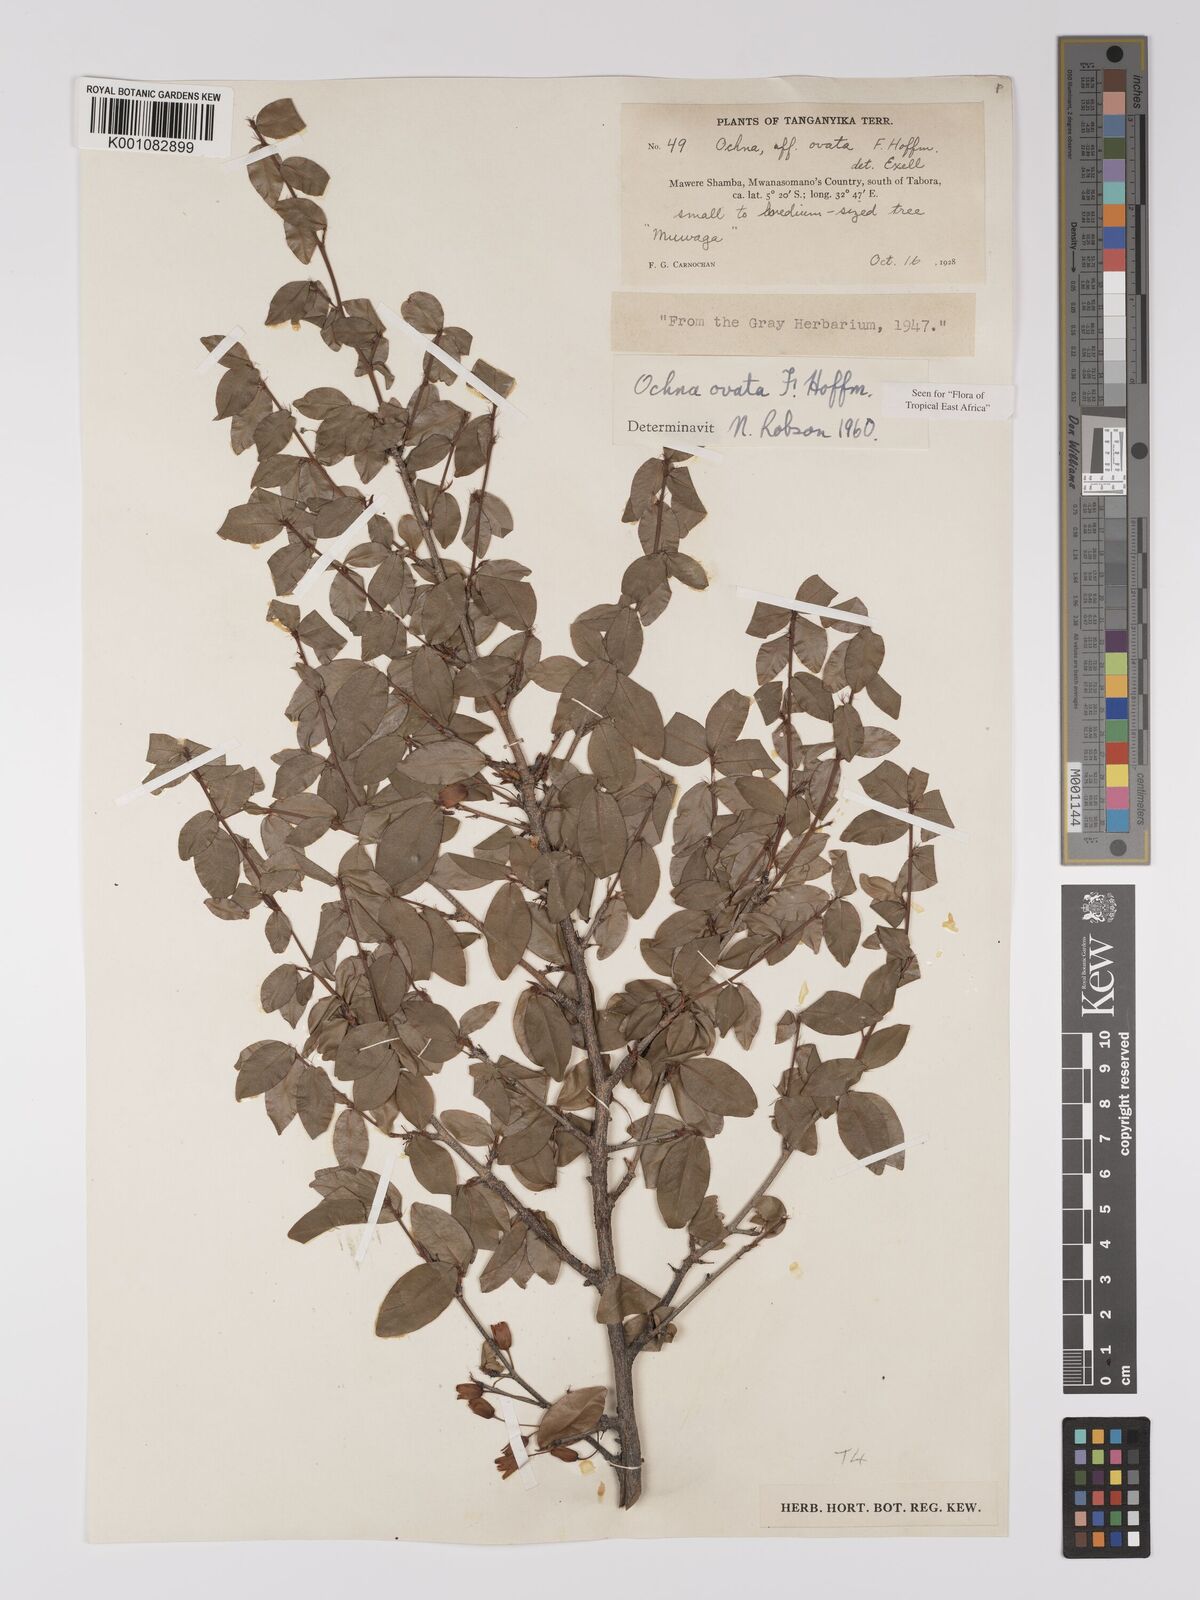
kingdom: Plantae
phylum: Tracheophyta
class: Magnoliopsida
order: Malpighiales
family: Ochnaceae
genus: Ochna
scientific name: Ochna ovata
